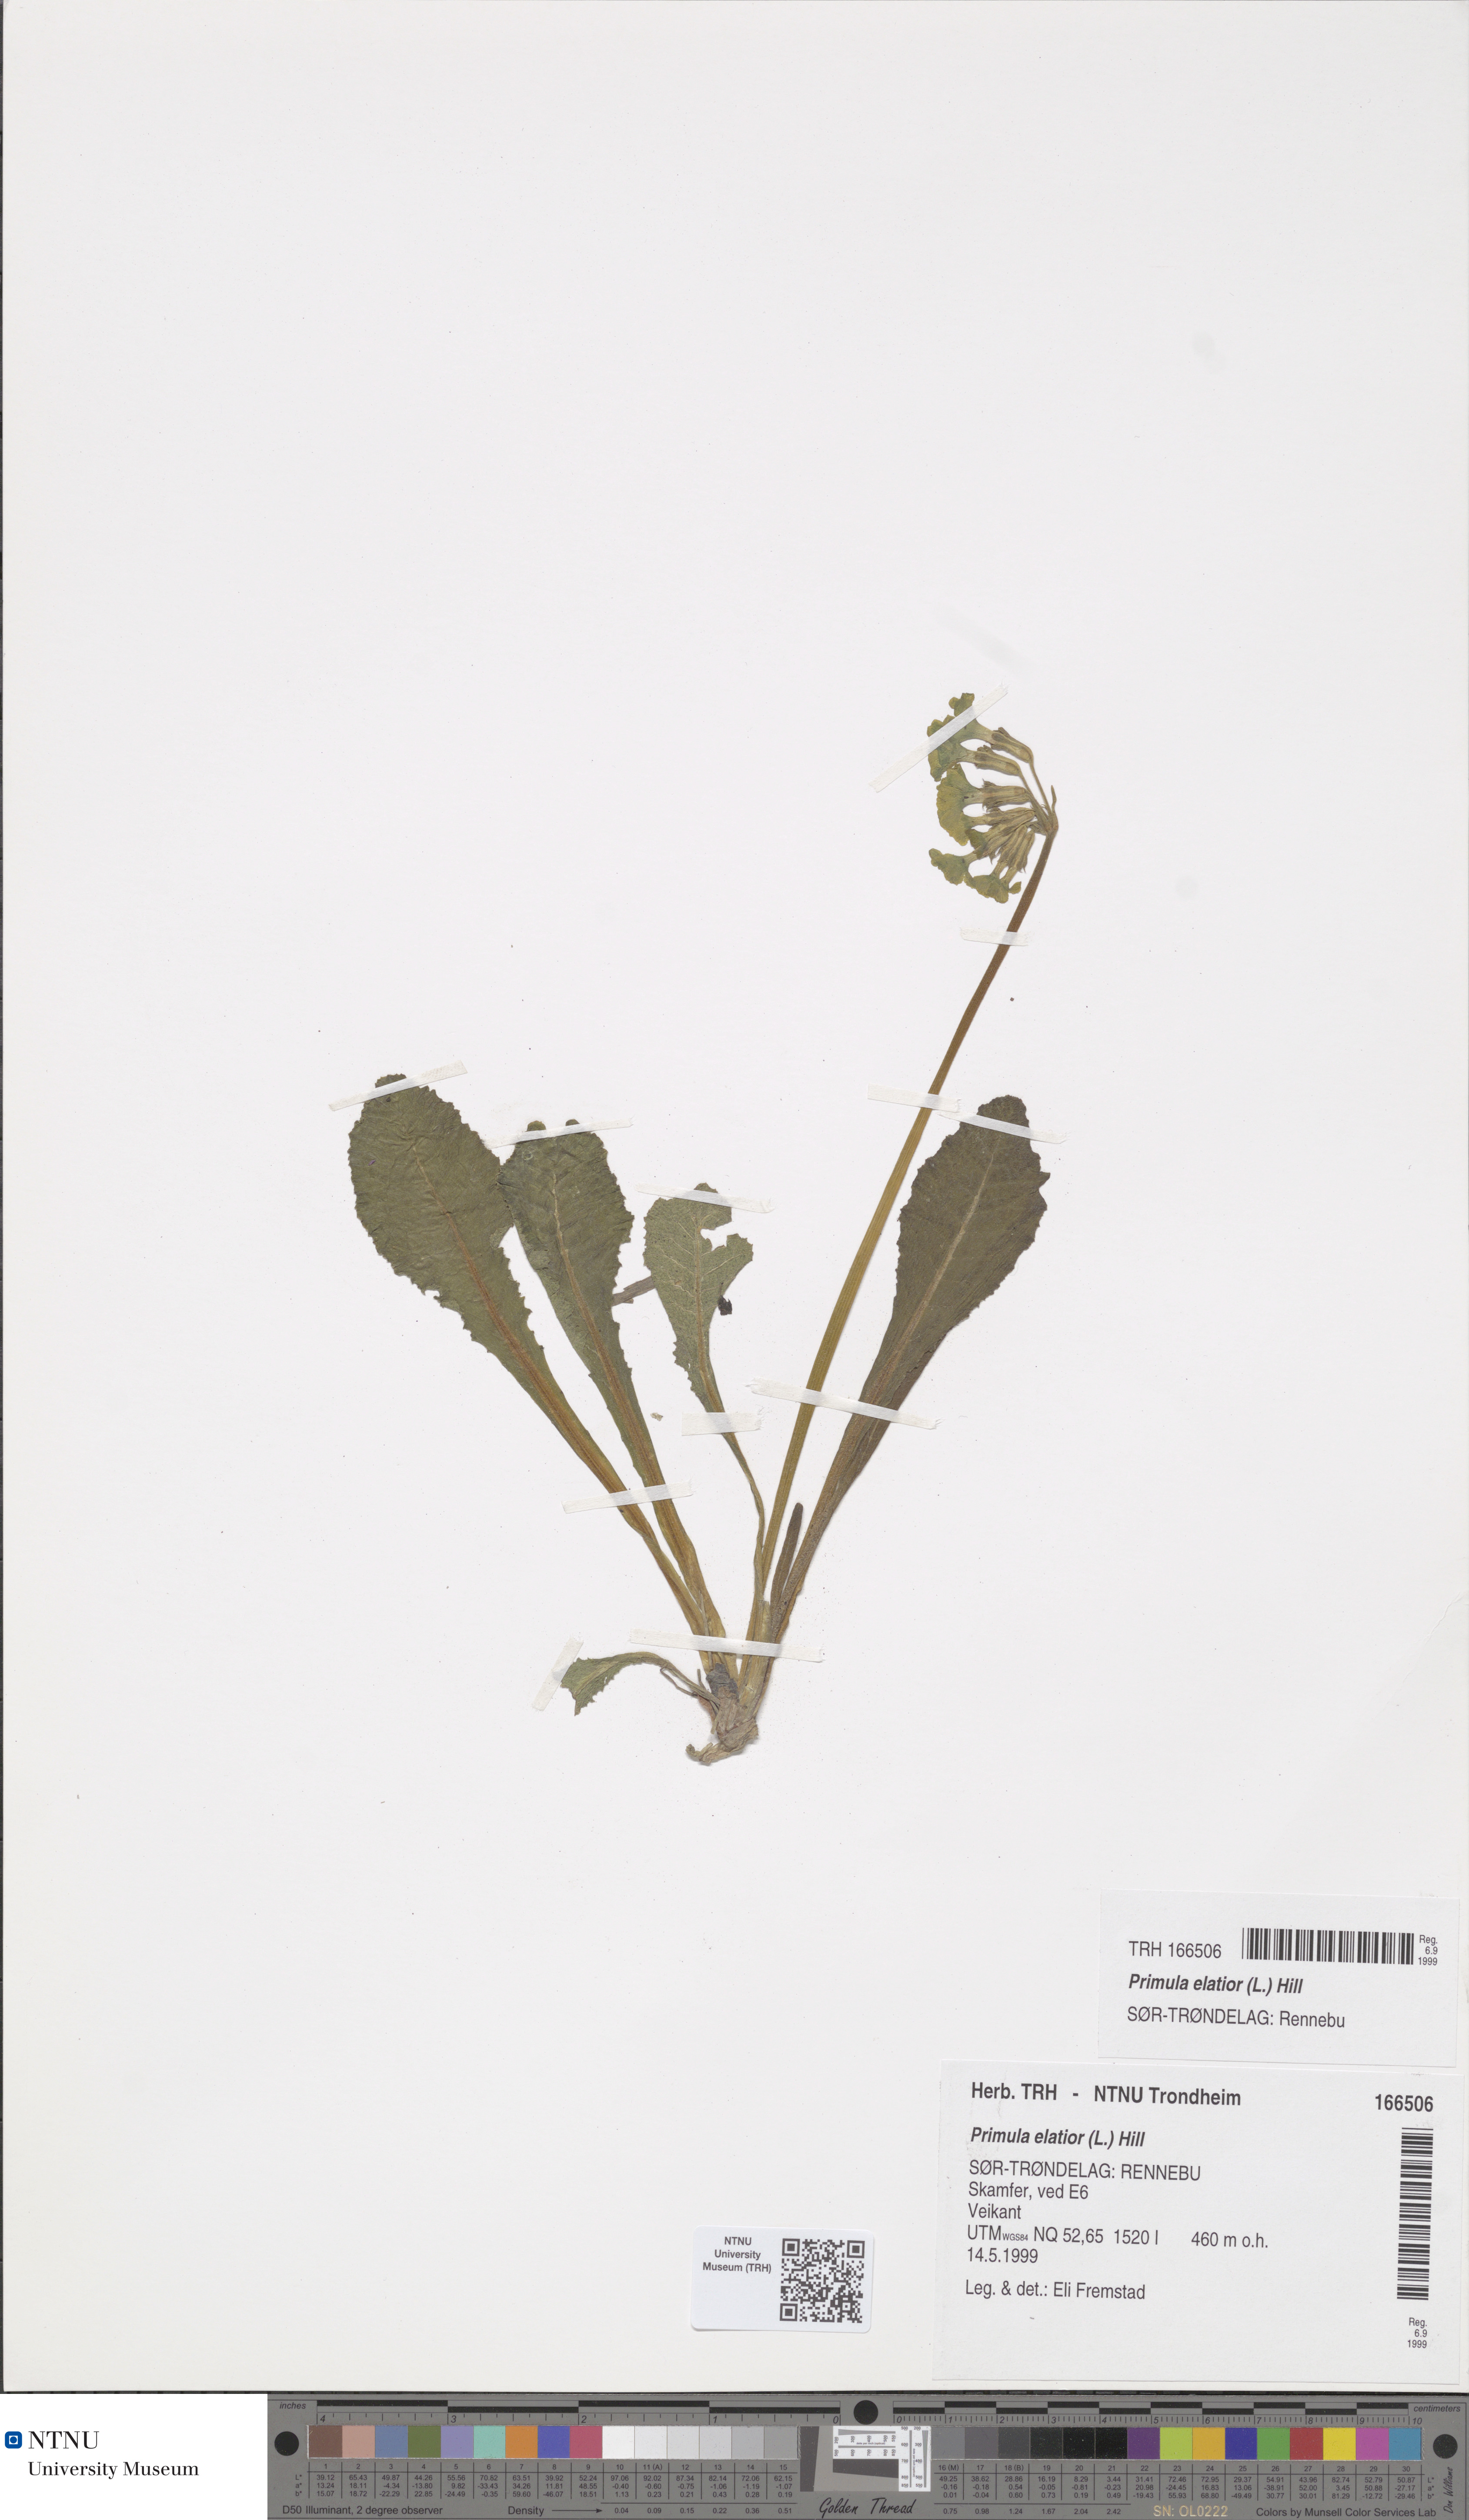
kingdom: Plantae
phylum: Tracheophyta
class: Magnoliopsida
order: Ericales
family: Primulaceae
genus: Primula
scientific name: Primula elatior
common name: Oxlip
